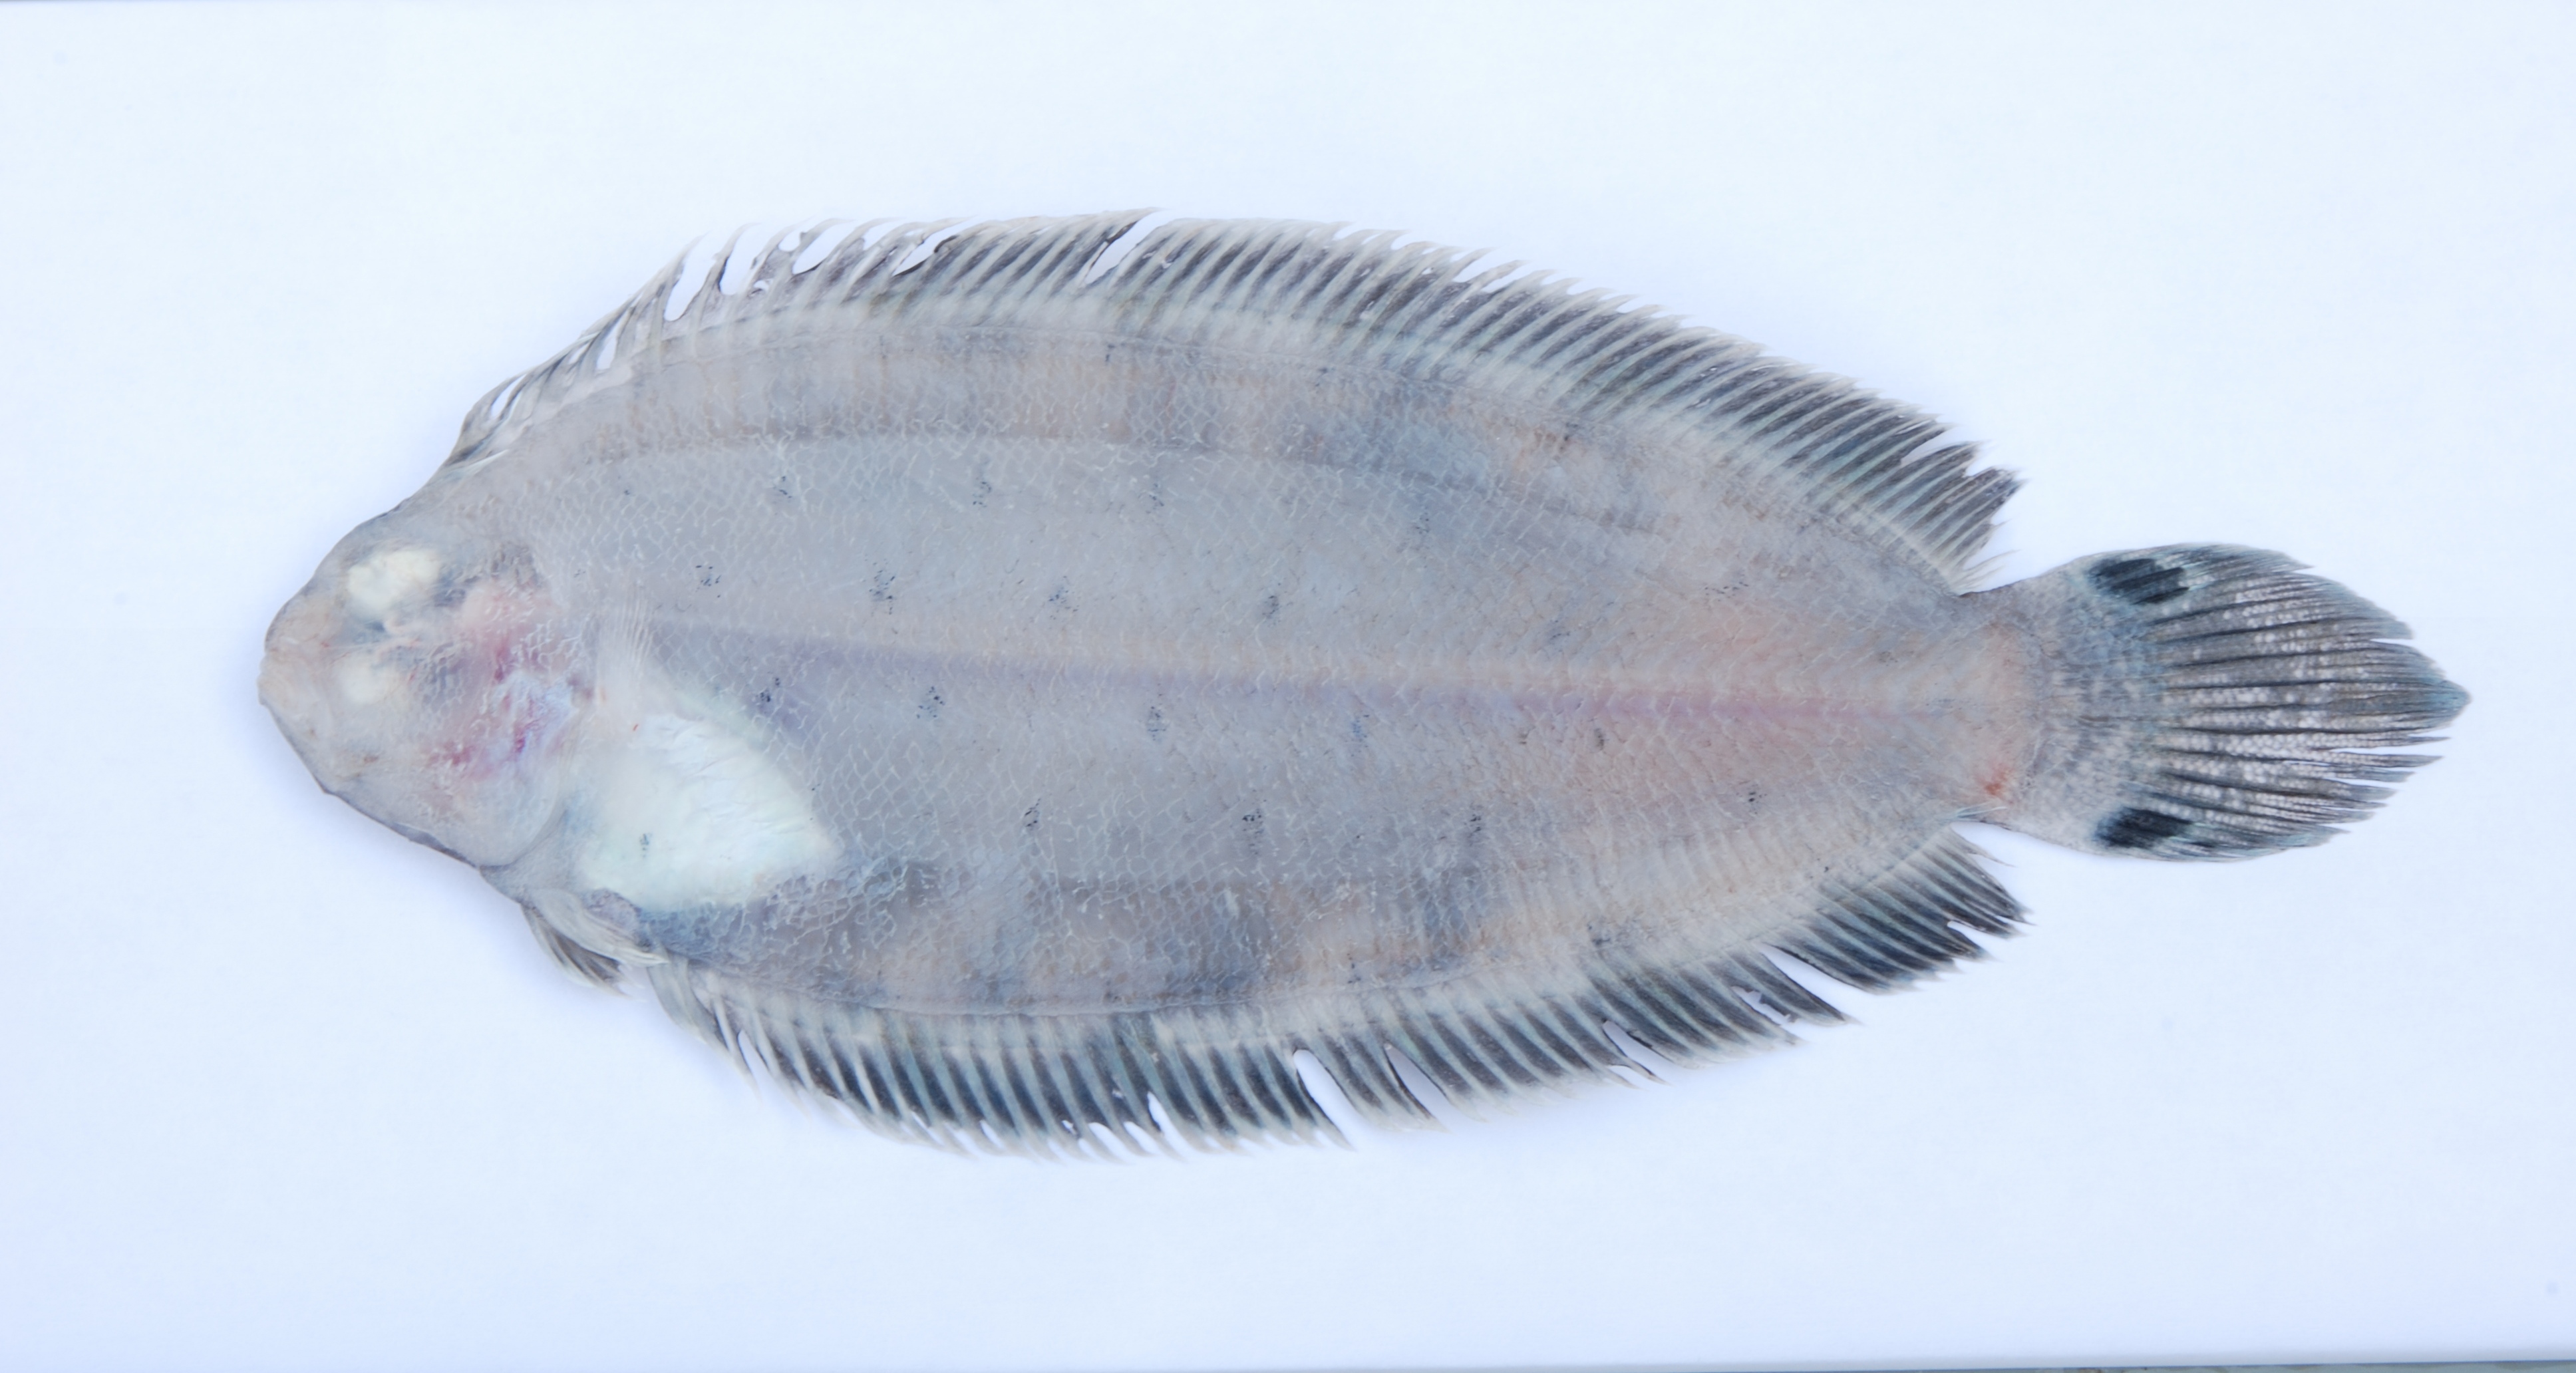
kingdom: Animalia
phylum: Chordata
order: Pleuronectiformes
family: Pleuronectidae
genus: Poecilopsetta
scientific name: Poecilopsetta zanzibarensis
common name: Zanzibar righteye flounder
